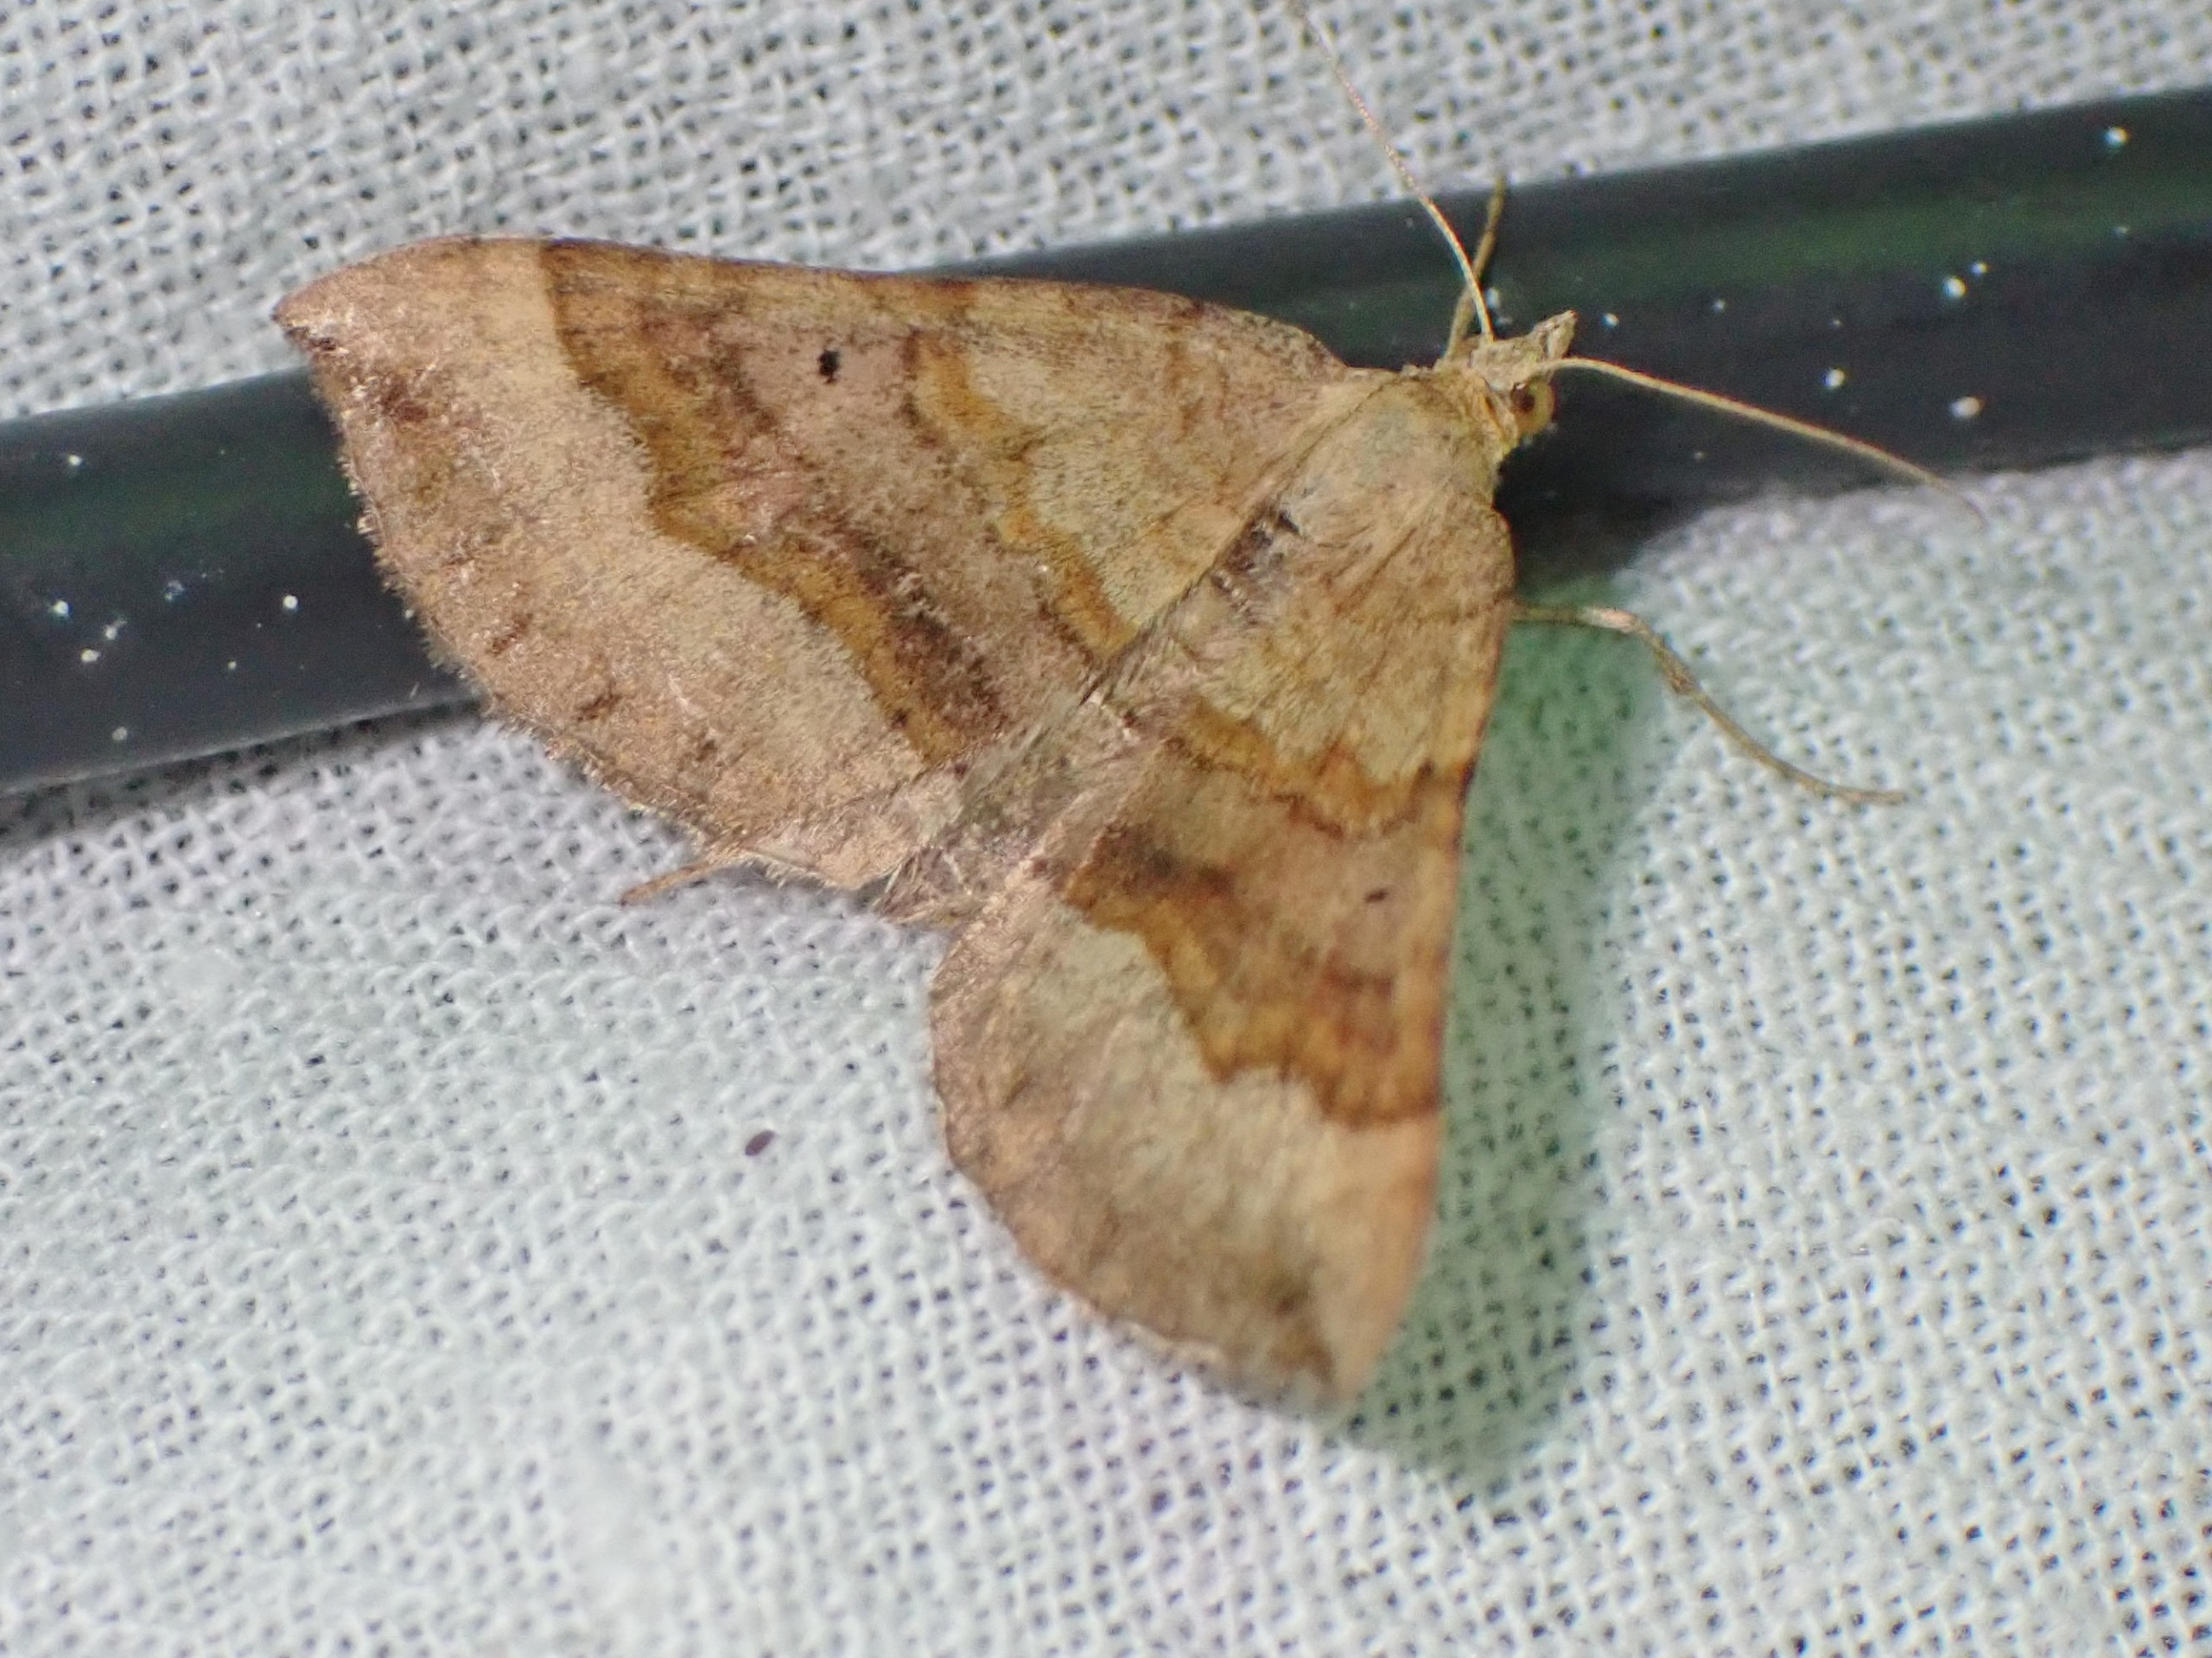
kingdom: Animalia
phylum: Arthropoda
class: Insecta
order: Lepidoptera
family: Geometridae
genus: Scotopteryx
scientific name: Scotopteryx chenopodiata
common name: Almindelig spidsvingemåler
